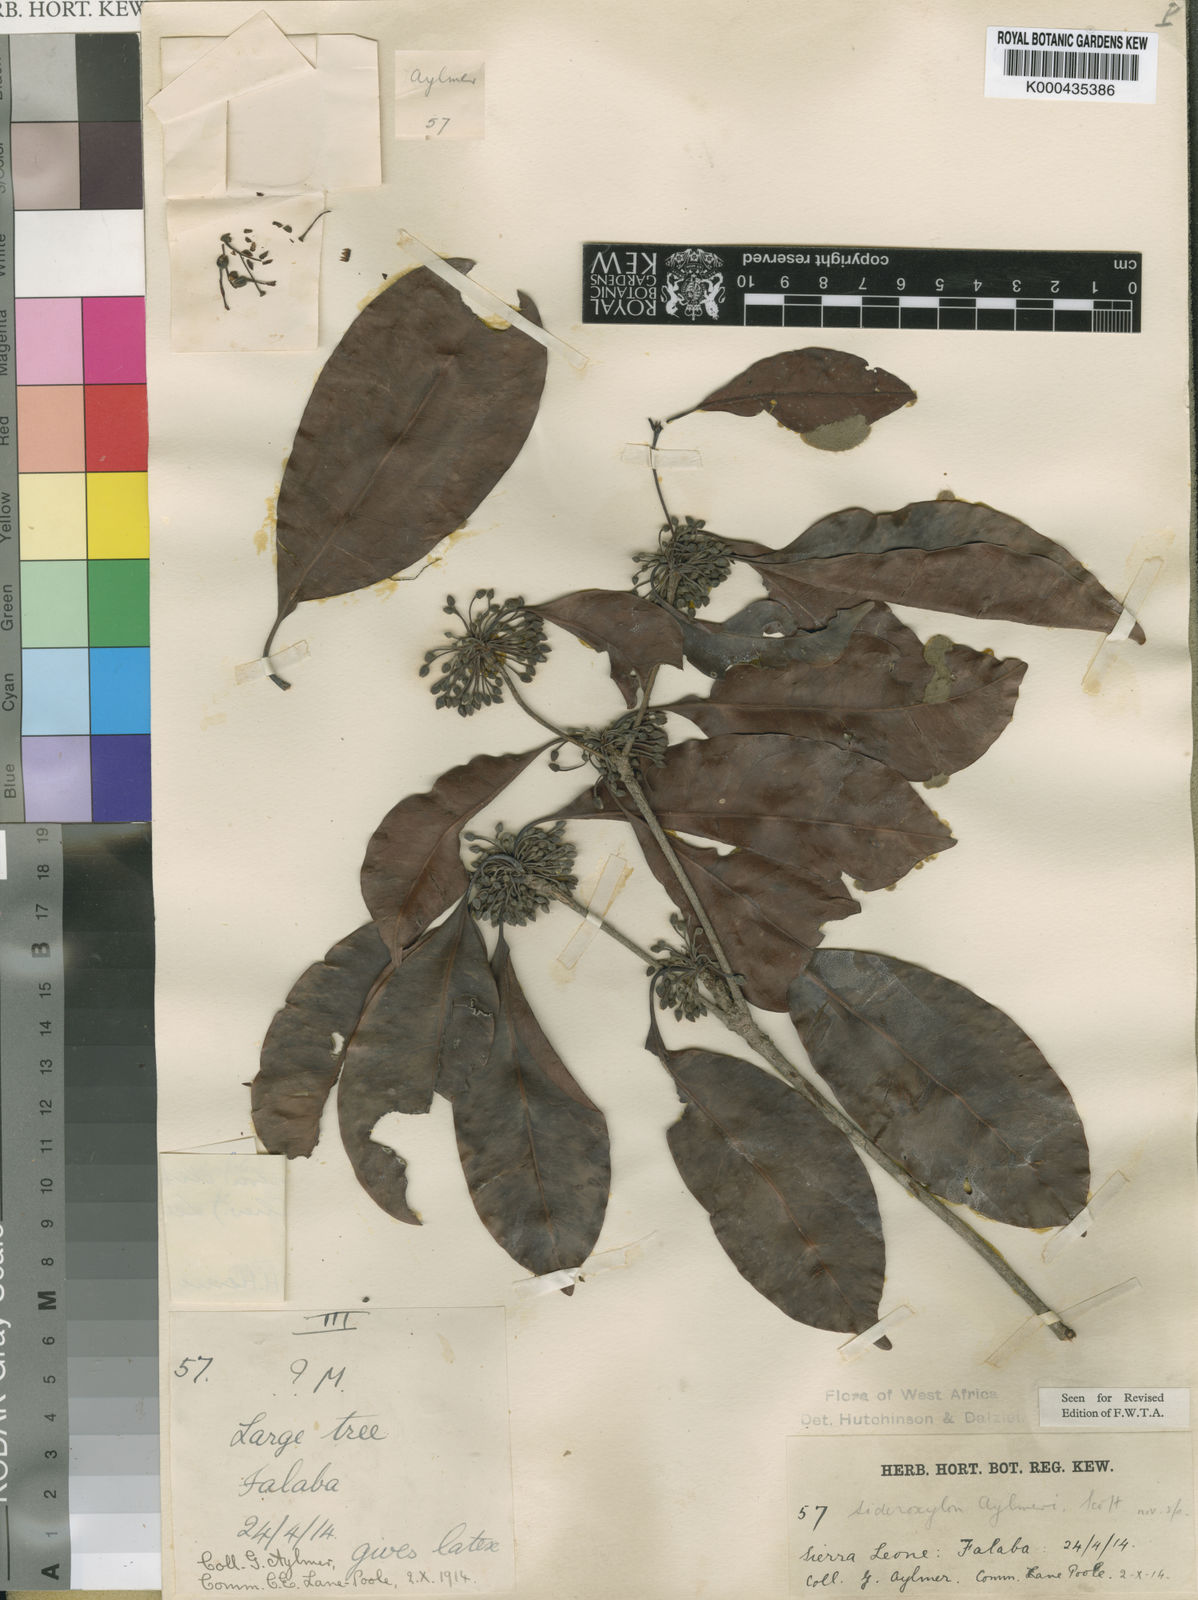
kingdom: Plantae
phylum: Tracheophyta
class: Magnoliopsida
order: Ericales
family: Sapotaceae
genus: Neolemonniera
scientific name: Neolemonniera clitandrifolia
